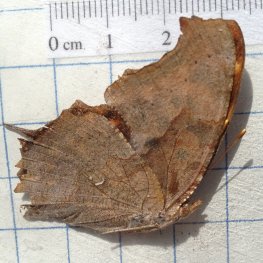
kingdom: Animalia
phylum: Arthropoda
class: Insecta
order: Lepidoptera
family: Nymphalidae
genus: Polygonia
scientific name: Polygonia interrogationis
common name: Question Mark
